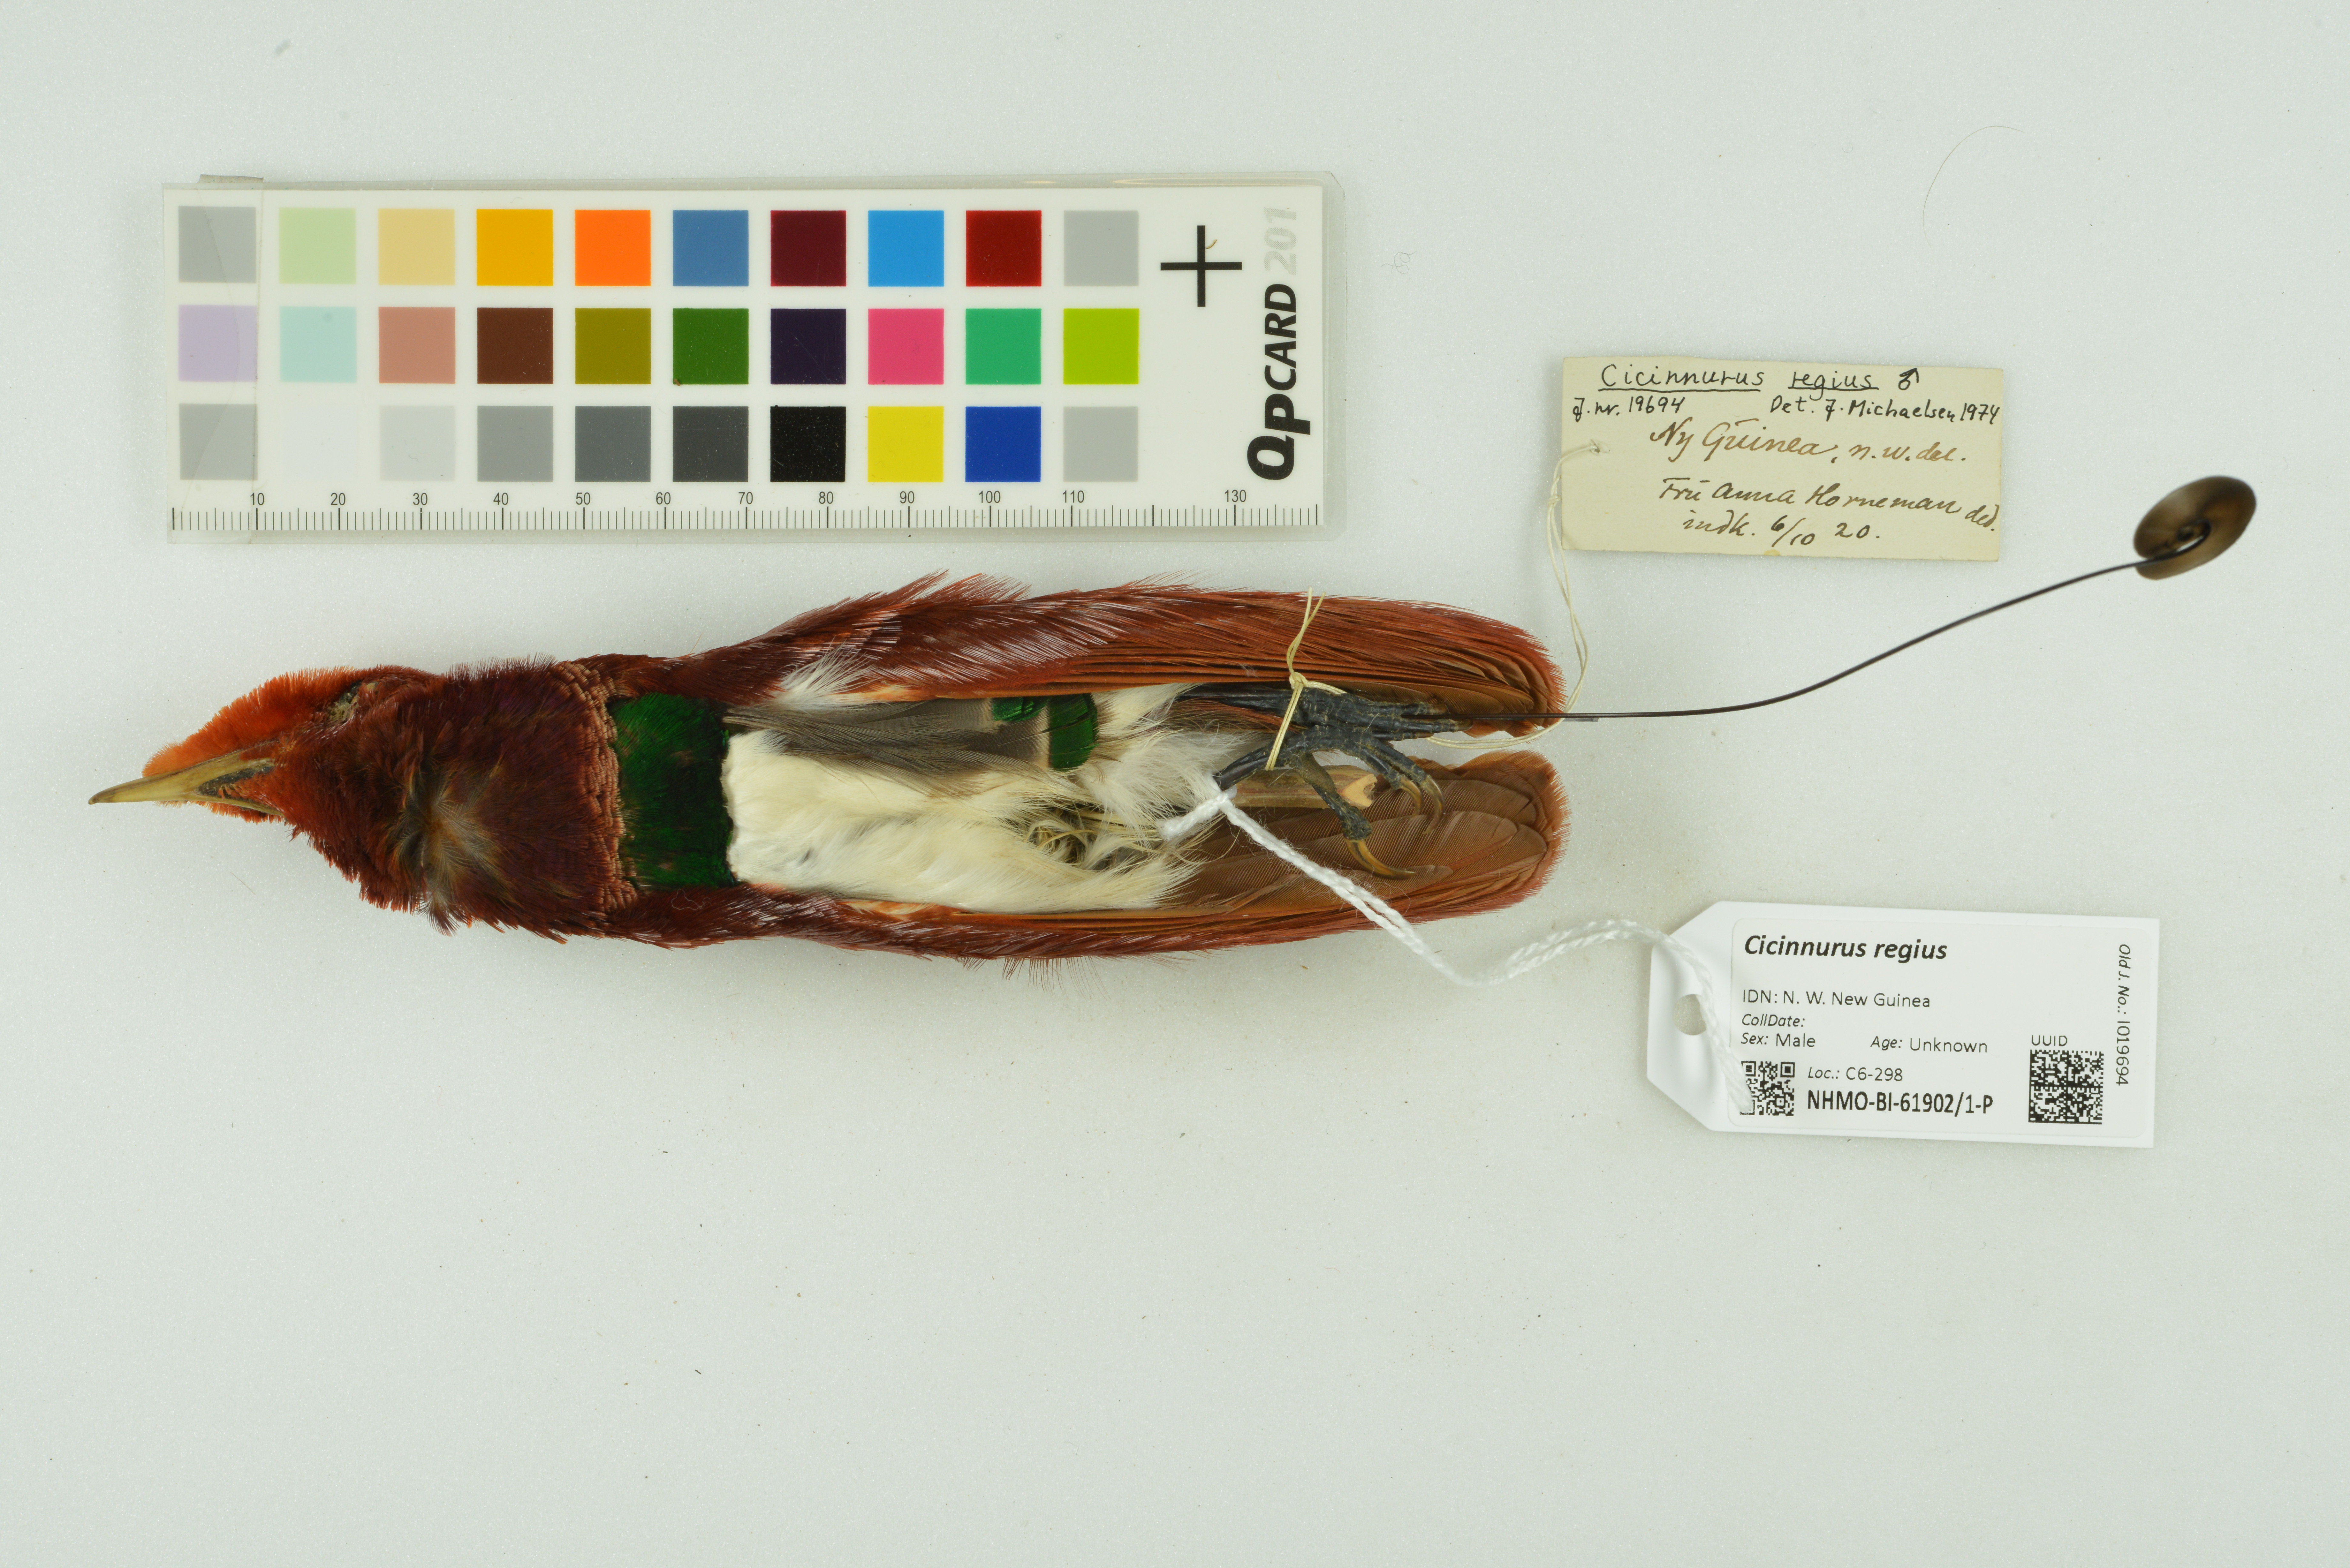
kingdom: Animalia
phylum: Chordata
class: Aves
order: Passeriformes
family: Paradisaeidae
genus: Cicinnurus
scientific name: Cicinnurus regius
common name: King bird-of-paradise
